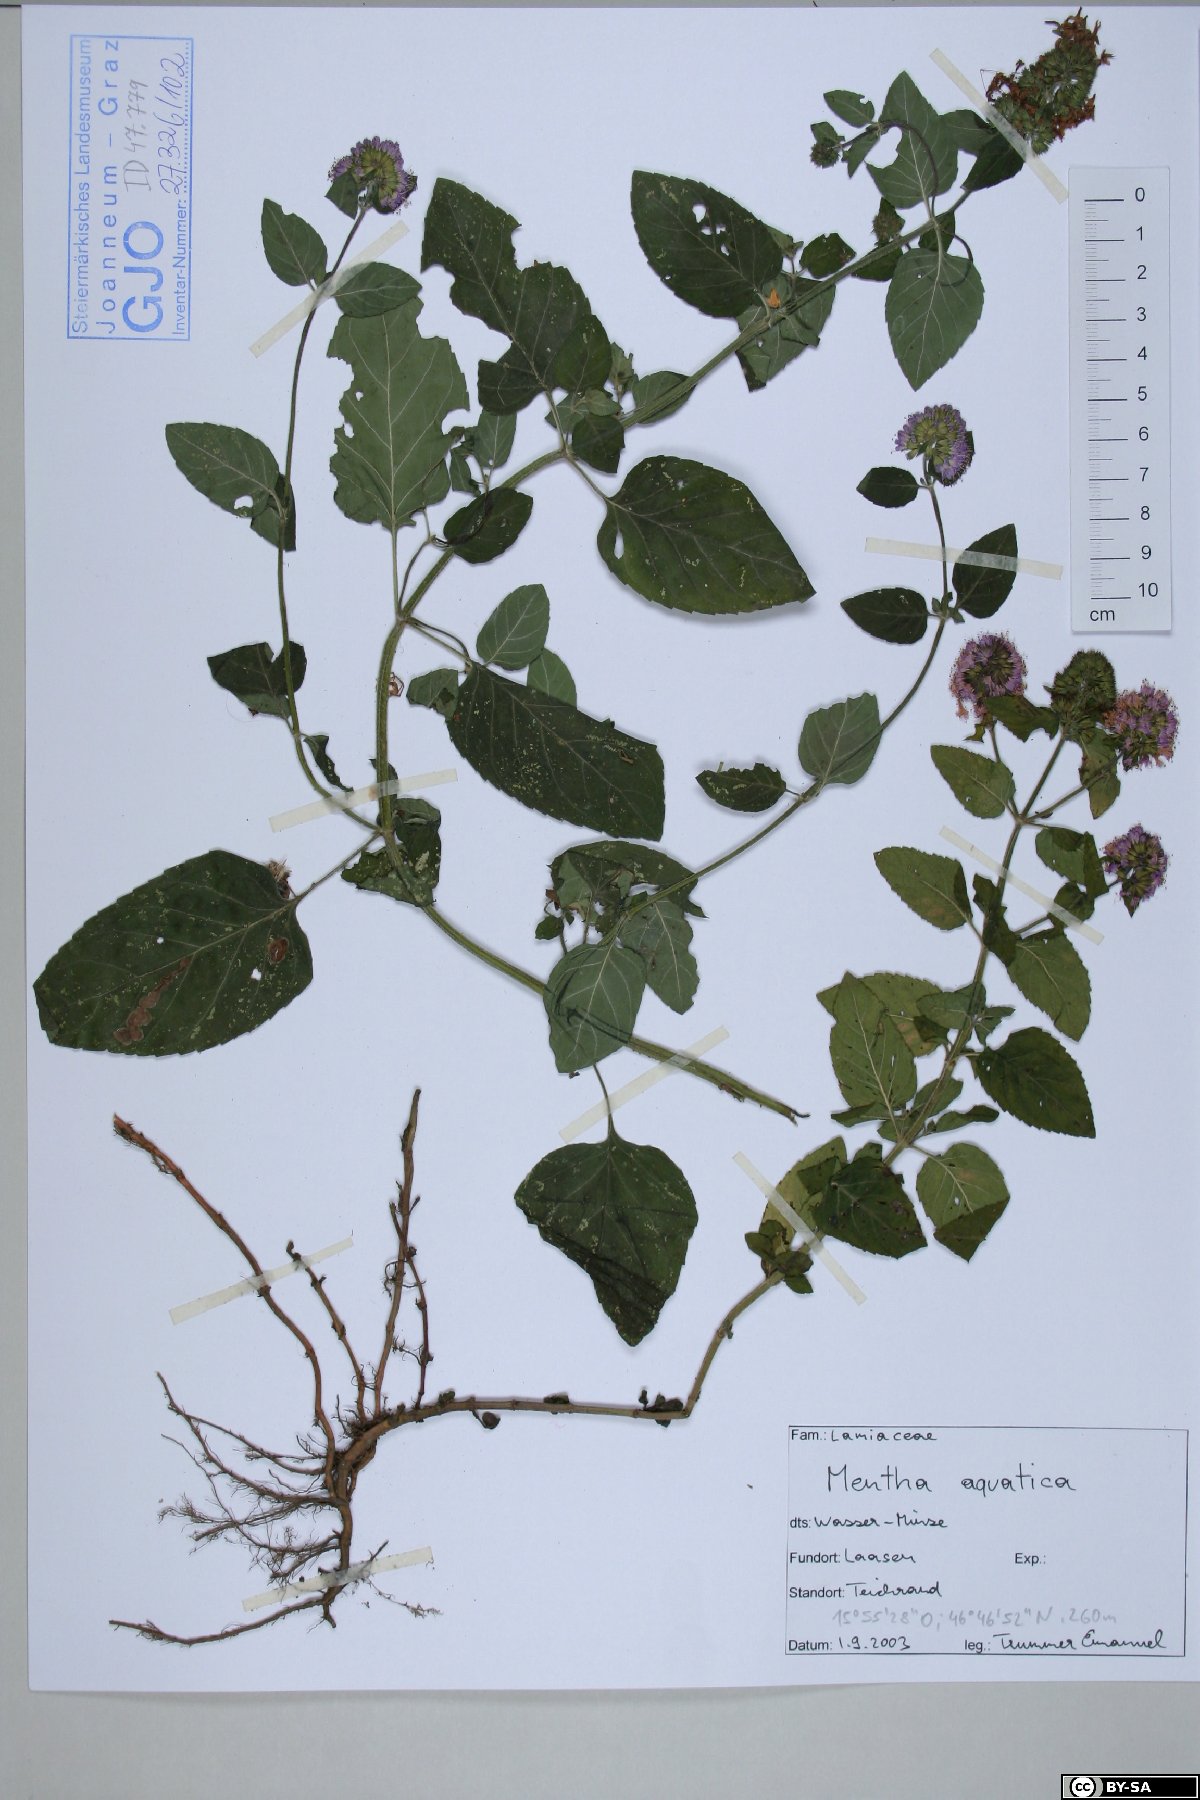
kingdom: Plantae
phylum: Tracheophyta
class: Magnoliopsida
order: Lamiales
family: Lamiaceae
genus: Mentha
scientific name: Mentha aquatica
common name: Water mint
